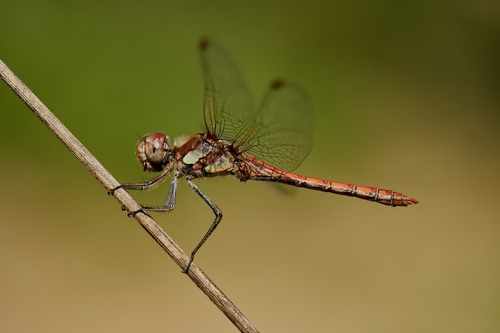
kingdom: Animalia
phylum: Arthropoda
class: Insecta
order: Odonata
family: Libellulidae
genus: Sympetrum
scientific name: Sympetrum striolatum
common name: Common darter
